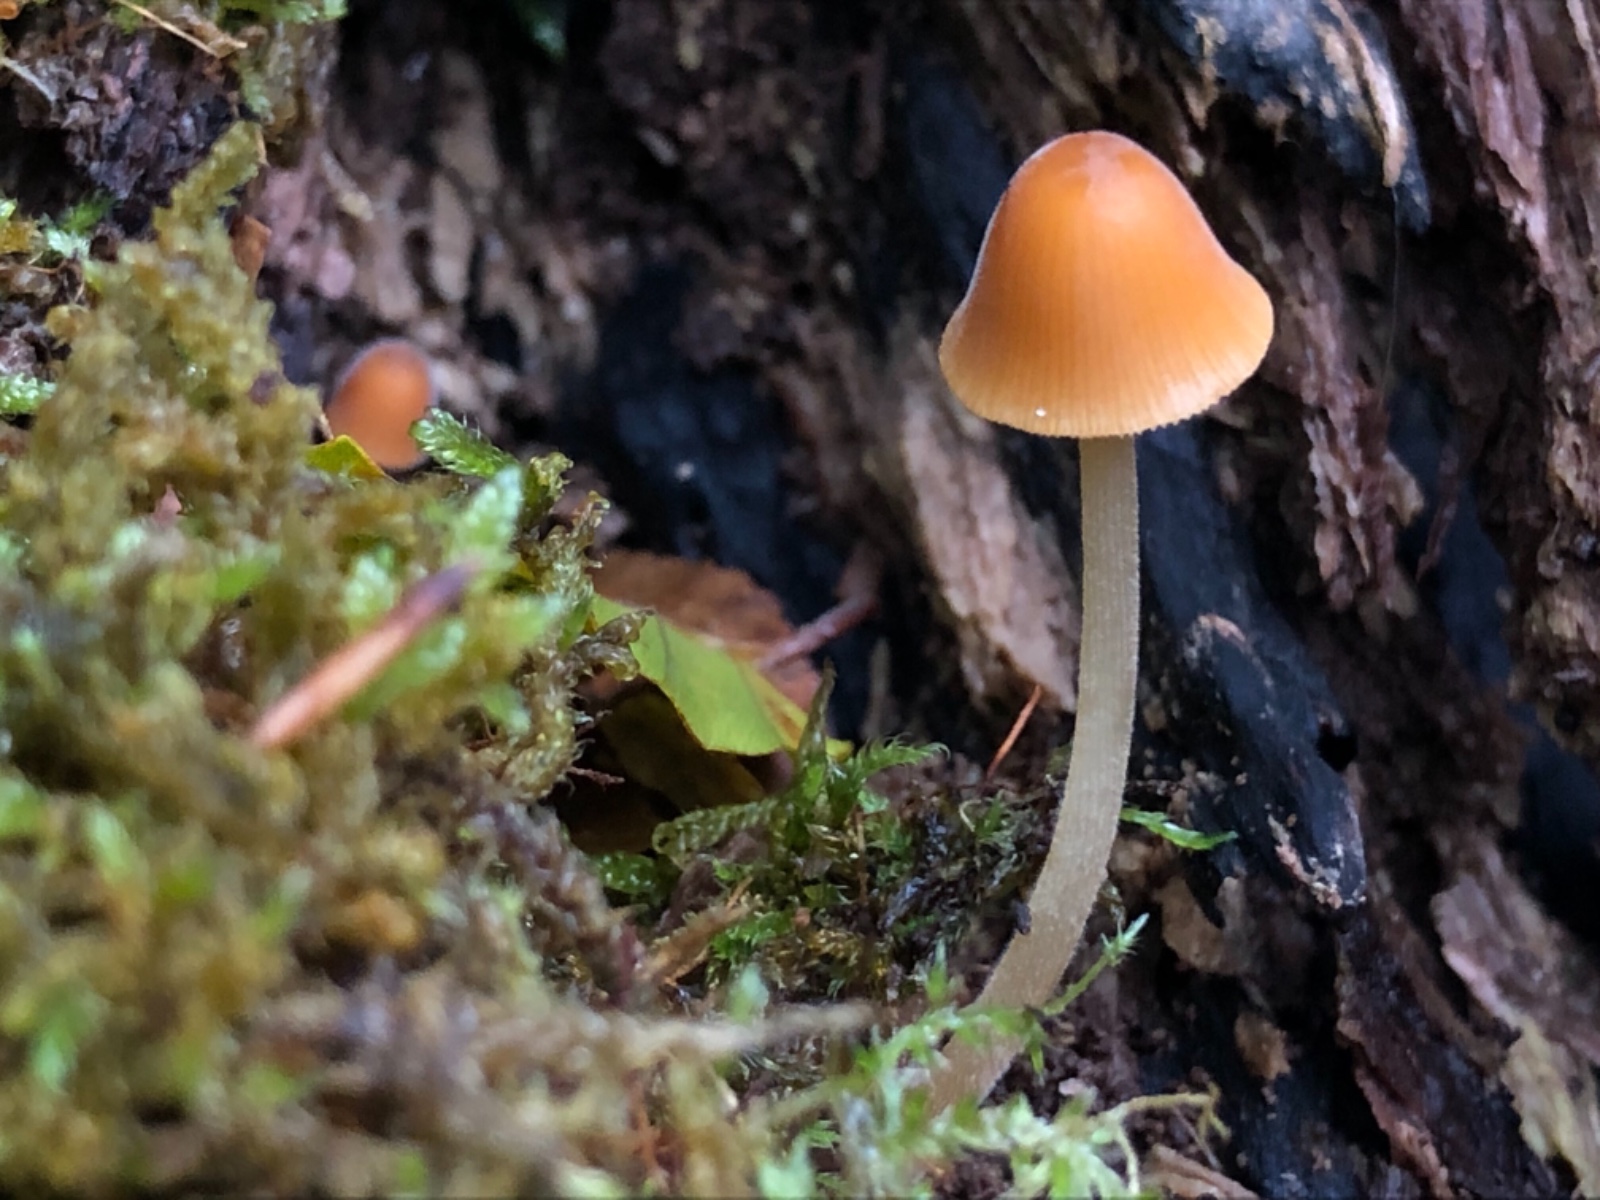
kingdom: Fungi
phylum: Basidiomycota
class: Agaricomycetes
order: Agaricales
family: Bolbitiaceae
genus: Conocybe
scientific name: Conocybe subpubescens
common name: krat-keglehat
